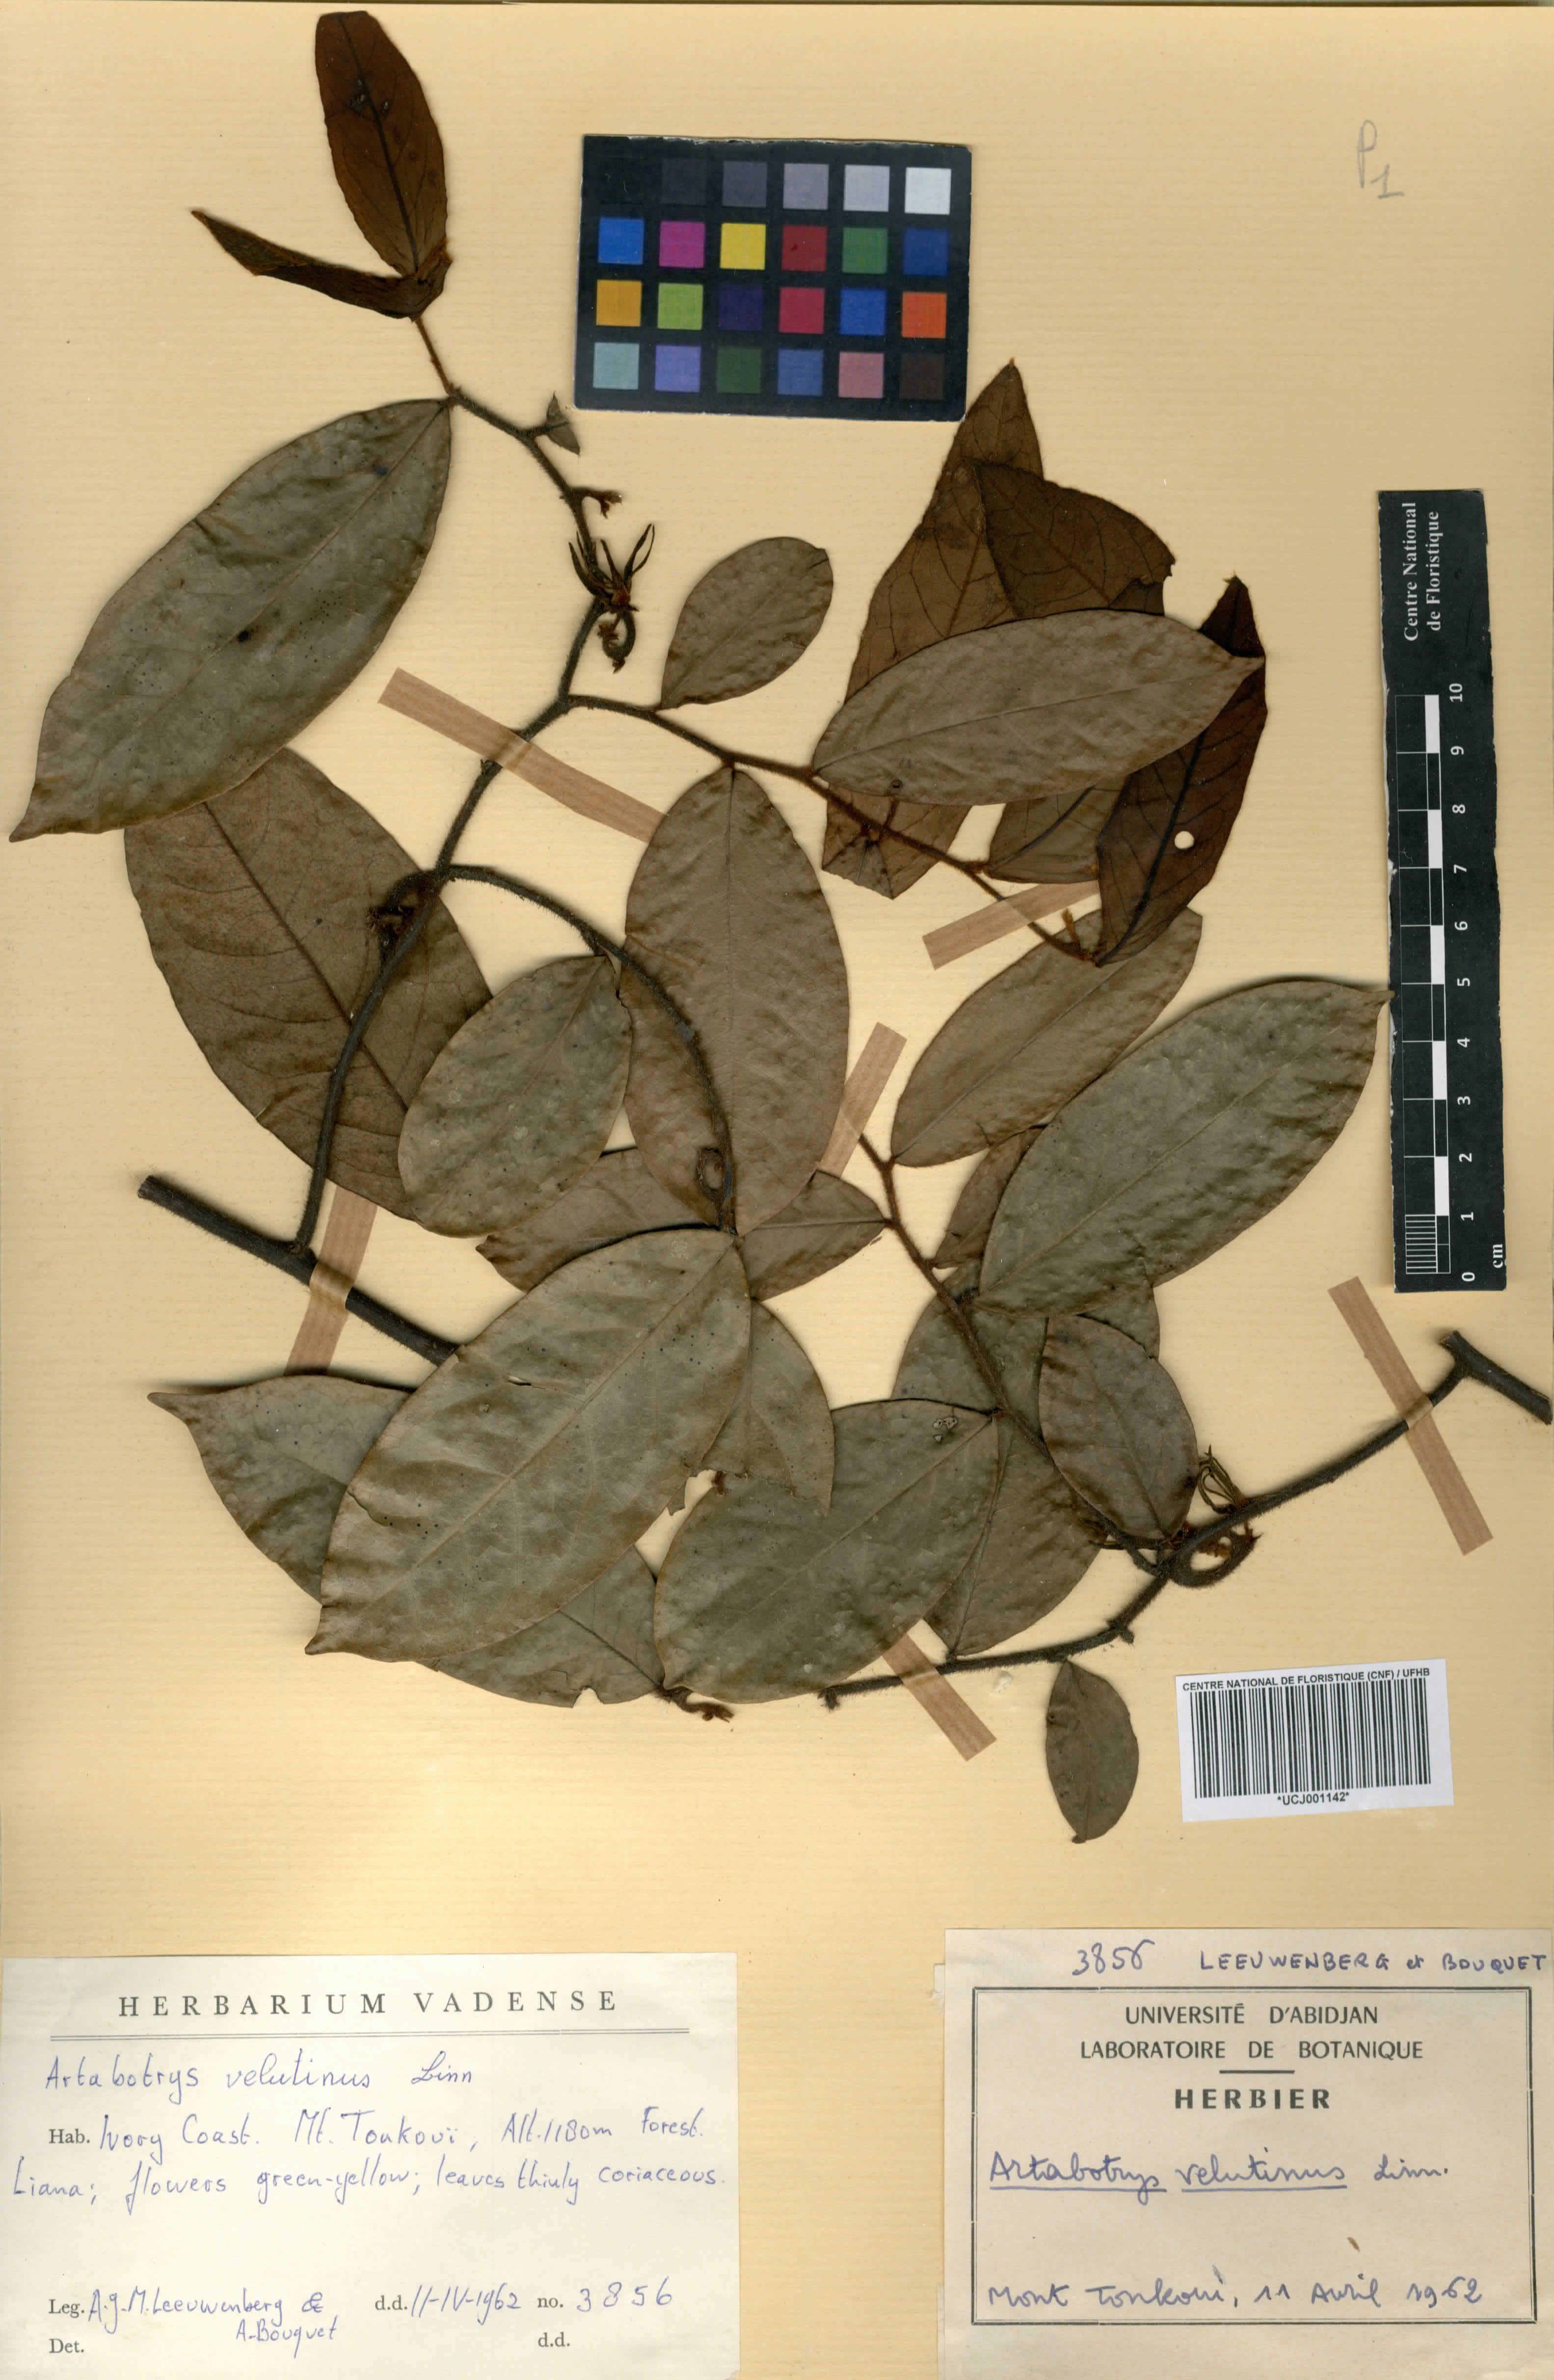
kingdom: Plantae
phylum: Tracheophyta
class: Magnoliopsida
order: Magnoliales
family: Annonaceae
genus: Artabotrys
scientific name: Artabotrys velutinus
